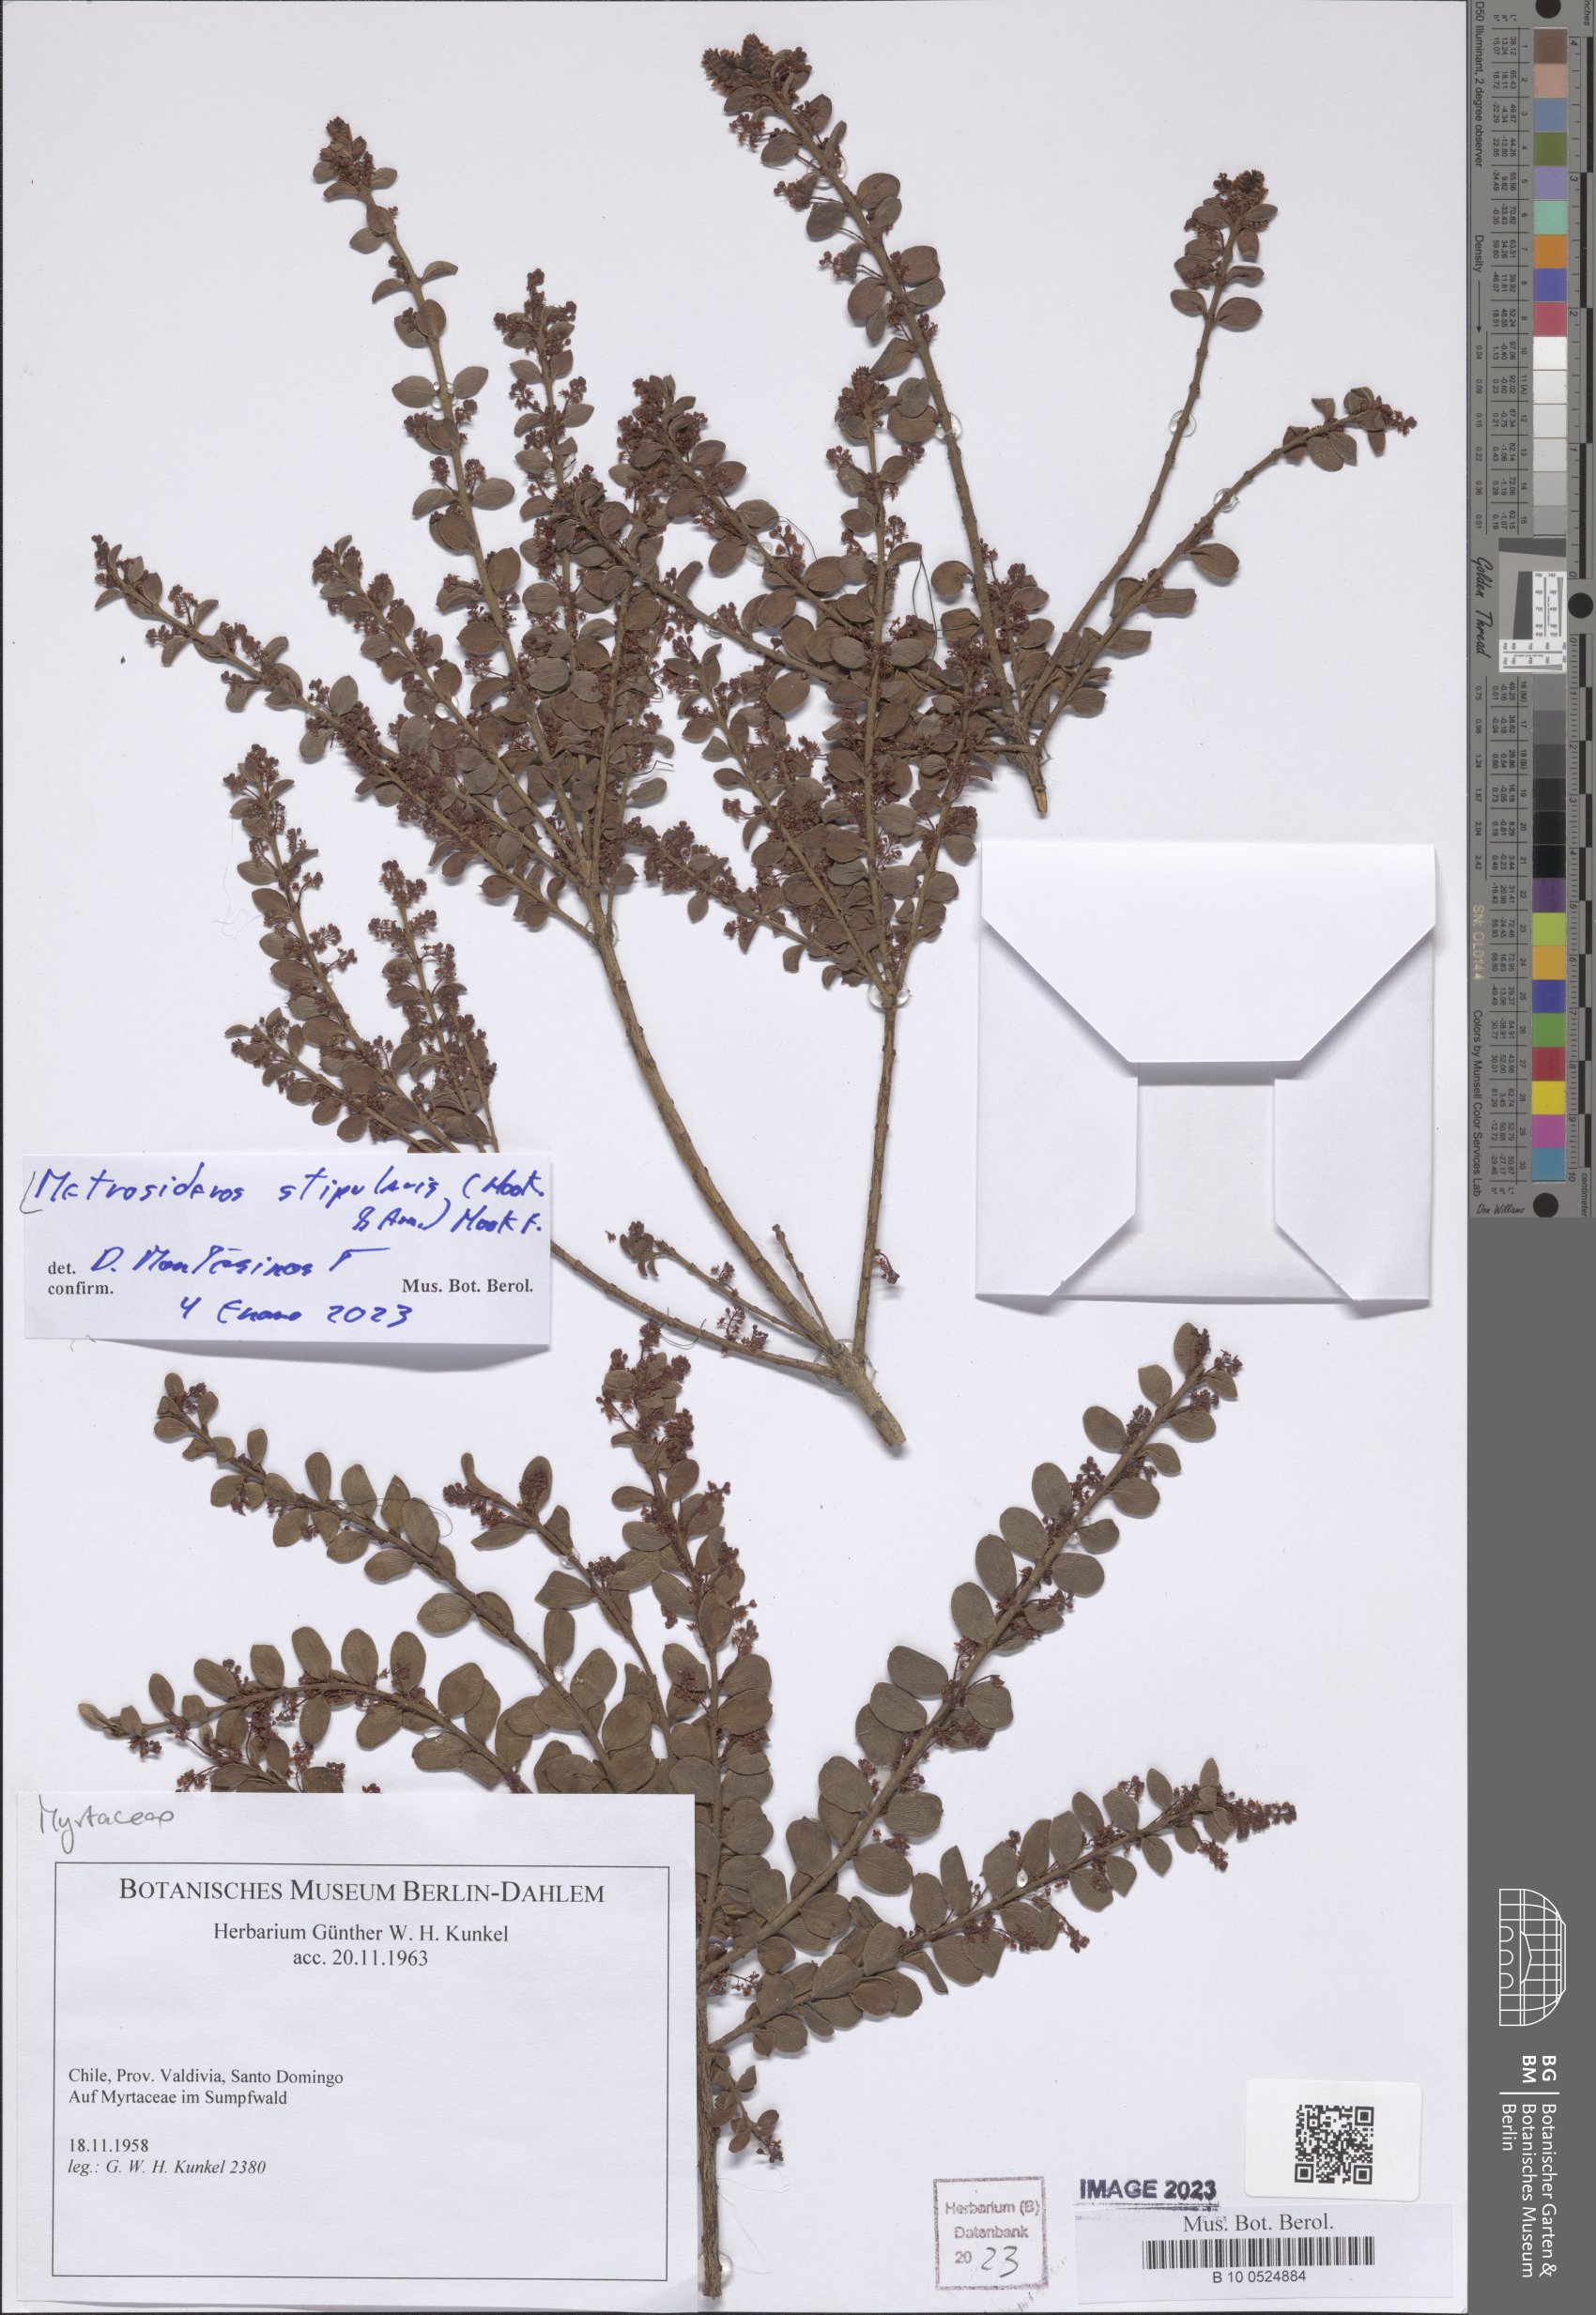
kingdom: Plantae
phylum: Tracheophyta
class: Magnoliopsida
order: Myrtales
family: Myrtaceae
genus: Tepualia
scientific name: Tepualia stipularis
